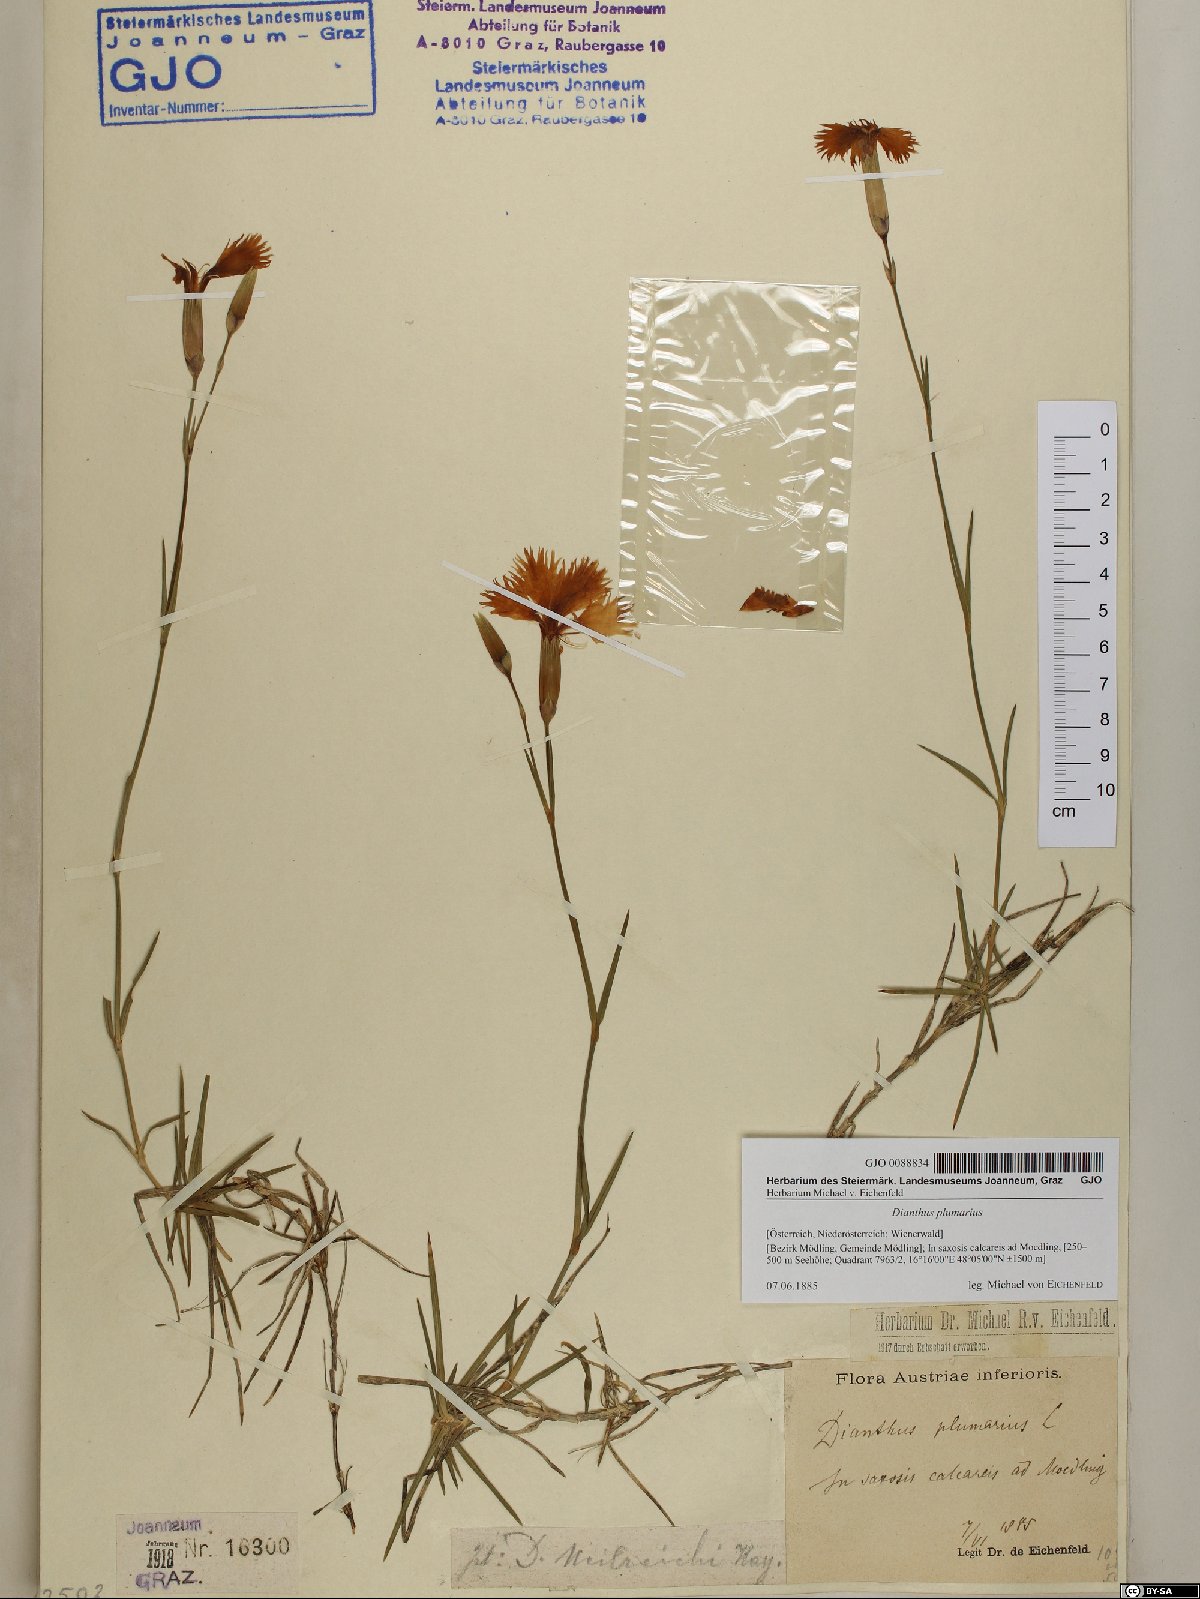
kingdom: Plantae
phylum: Tracheophyta
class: Magnoliopsida
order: Caryophyllales
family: Caryophyllaceae
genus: Dianthus
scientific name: Dianthus plumarius
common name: Pink
